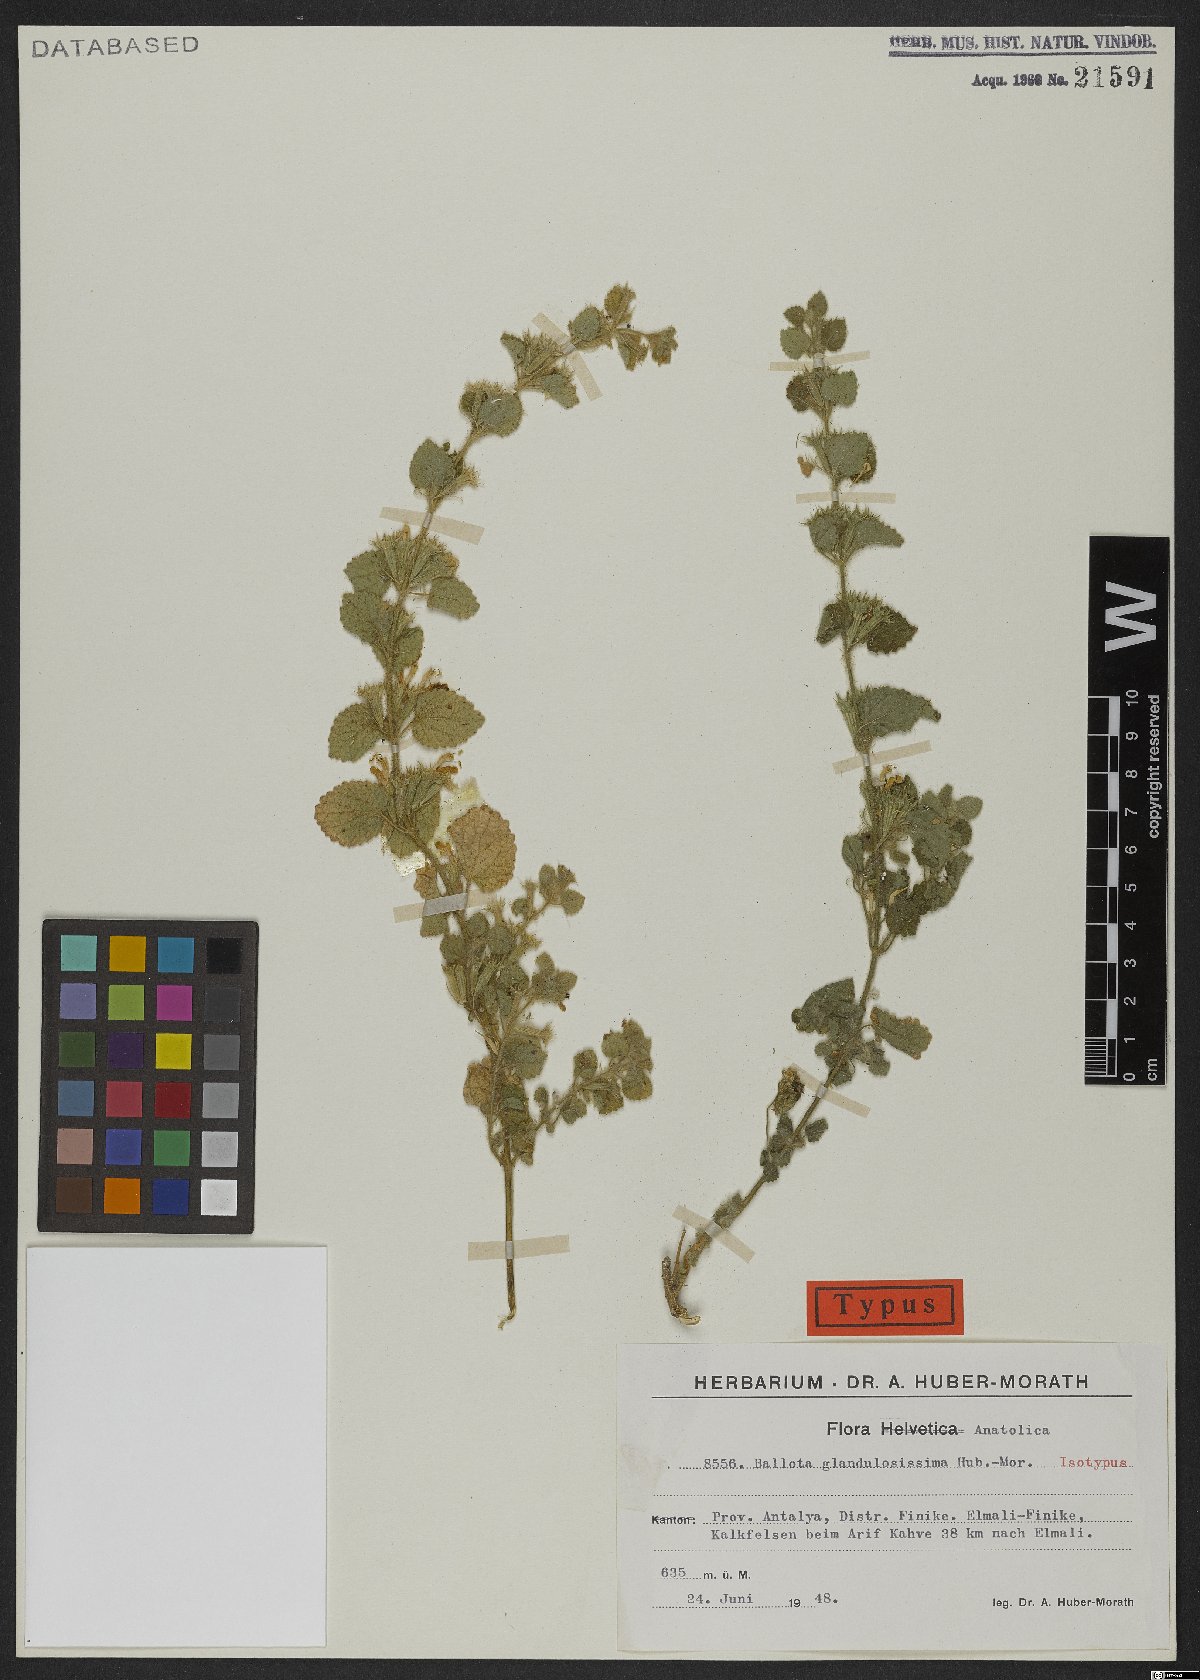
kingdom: Plantae
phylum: Tracheophyta
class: Magnoliopsida
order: Lamiales
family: Lamiaceae
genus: Ballota
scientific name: Ballota glandulosissima
